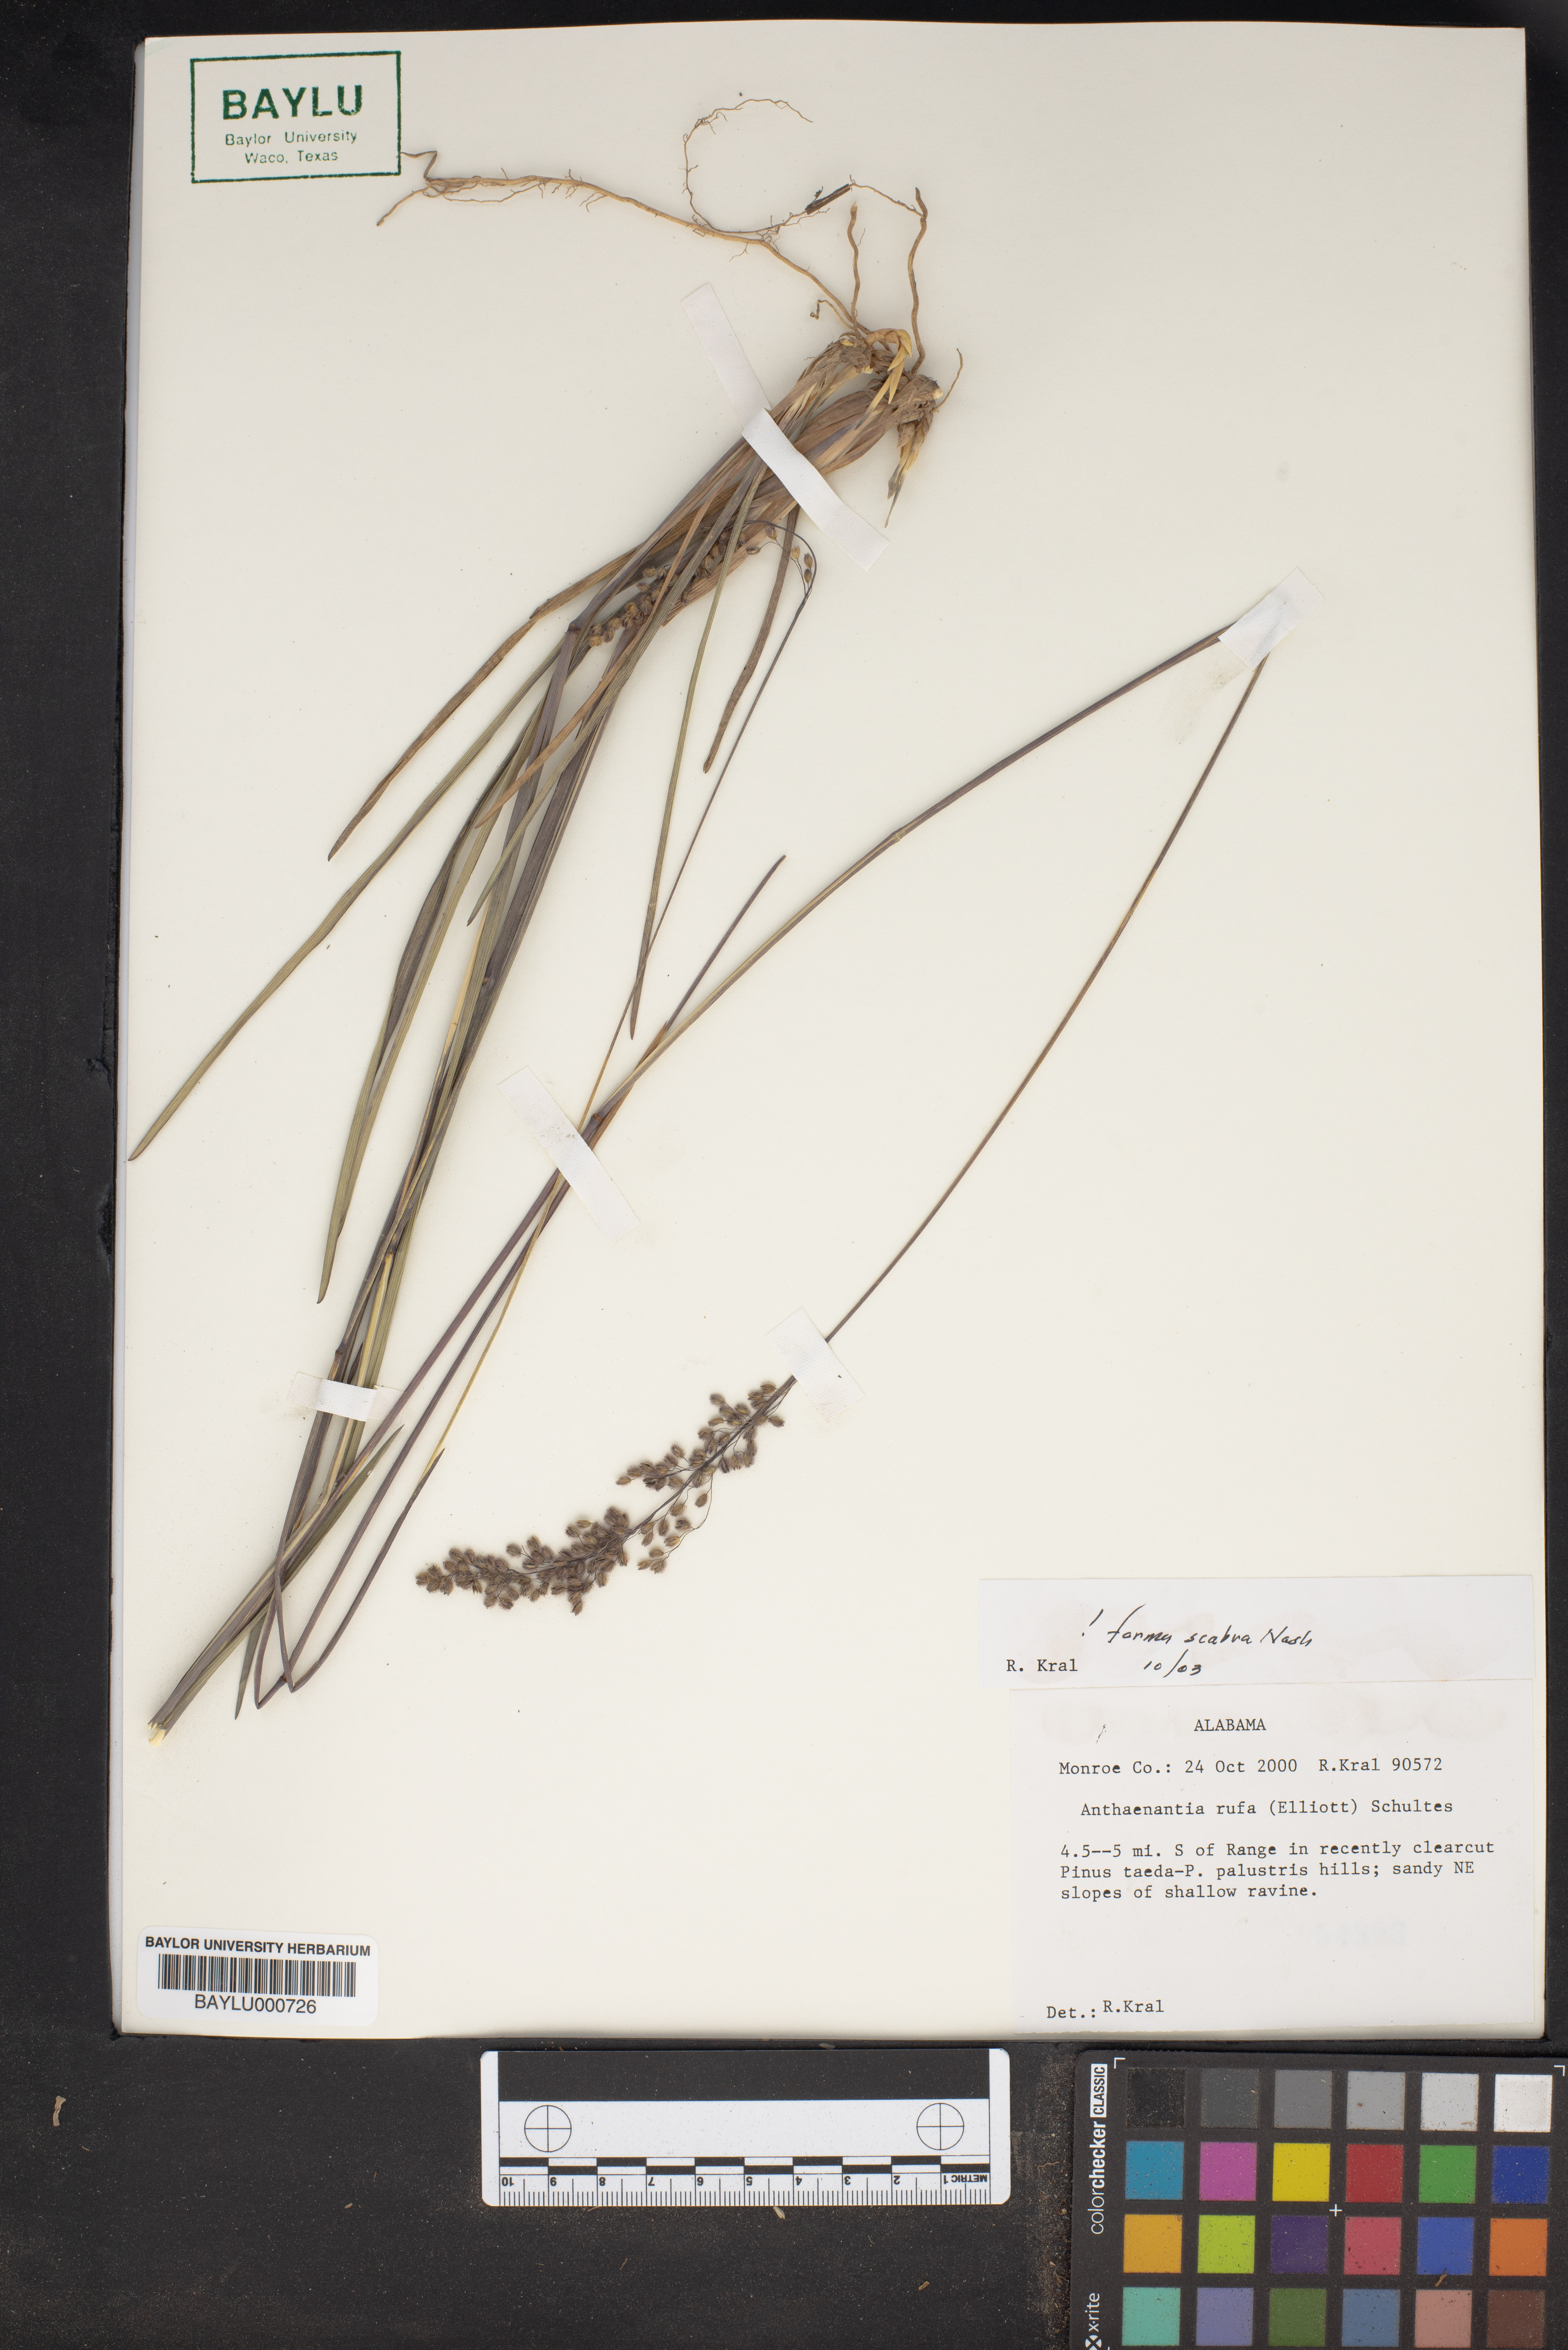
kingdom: Plantae
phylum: Tracheophyta
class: Liliopsida
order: Poales
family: Poaceae
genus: Anthenantia
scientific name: Anthenantia rufa
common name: Purple silkyscale
